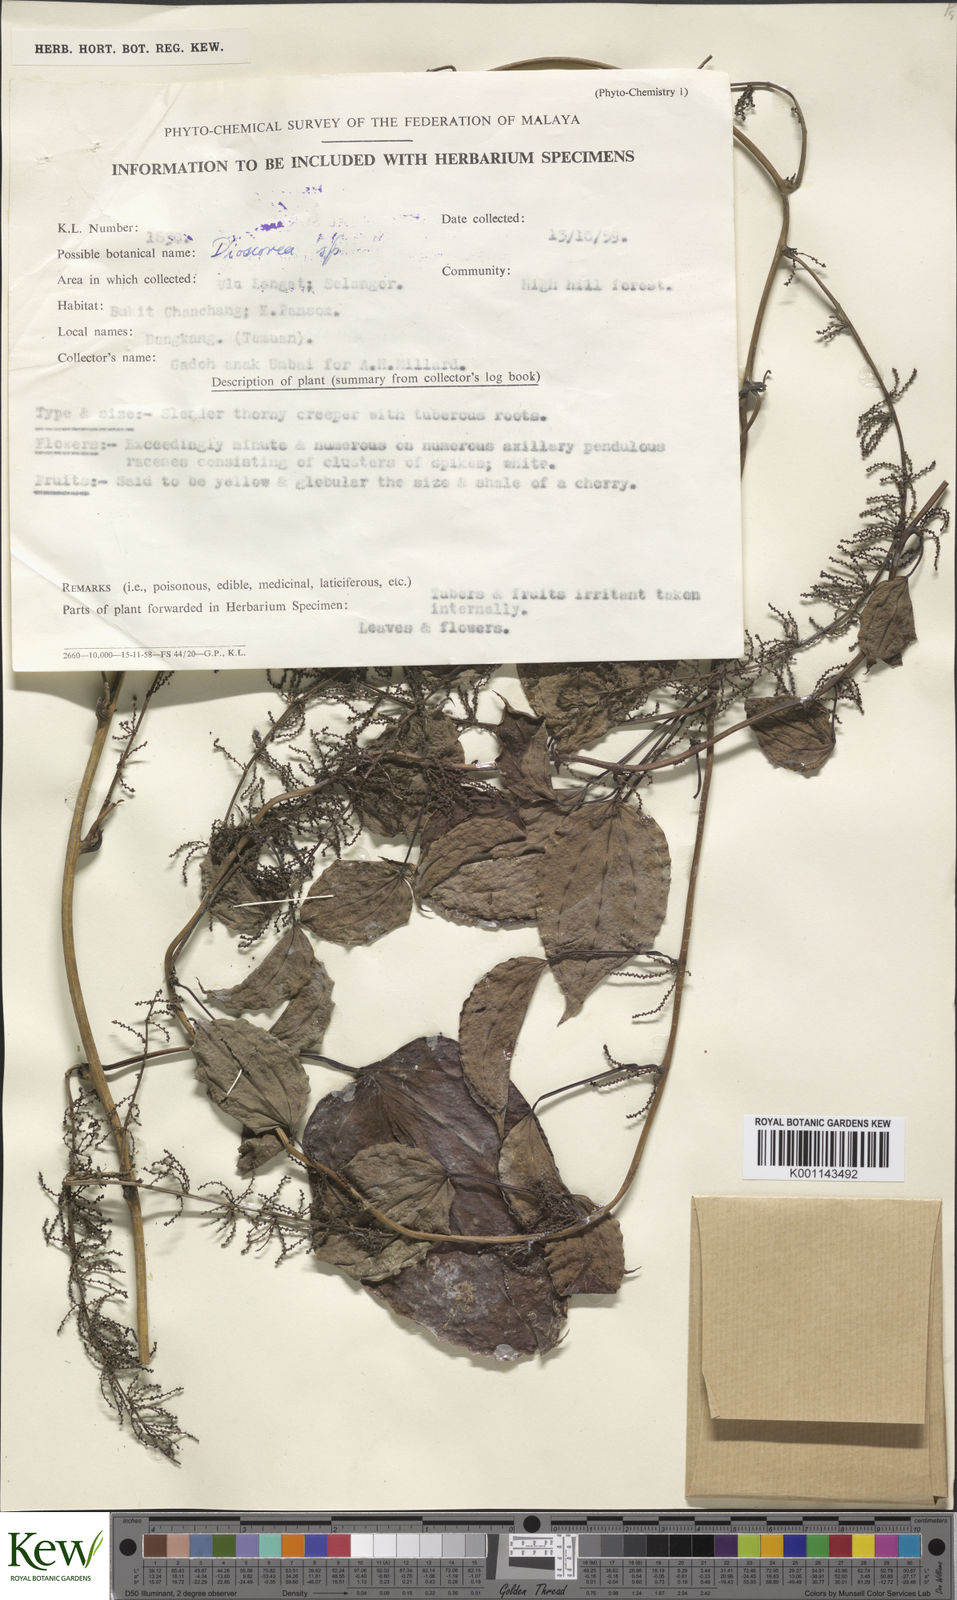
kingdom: Plantae
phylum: Tracheophyta
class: Liliopsida
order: Dioscoreales
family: Dioscoreaceae
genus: Dioscorea
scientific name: Dioscorea
